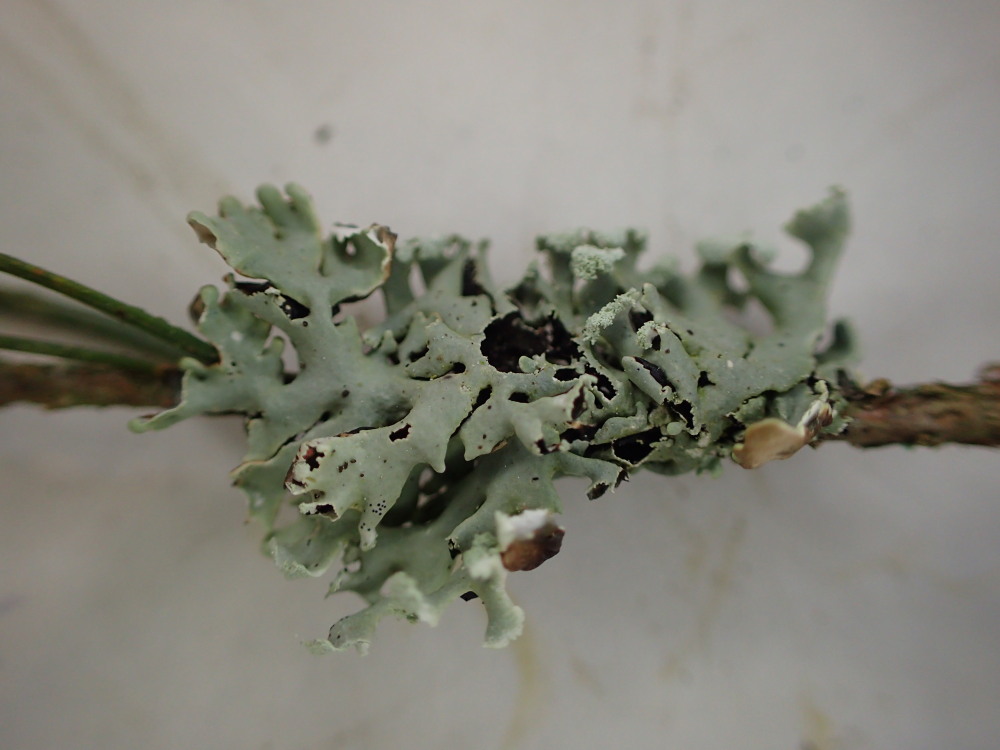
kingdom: Fungi
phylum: Ascomycota
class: Lecanoromycetes
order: Lecanorales
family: Parmeliaceae
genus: Hypogymnia
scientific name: Hypogymnia physodes
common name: almindelig kvistlav
